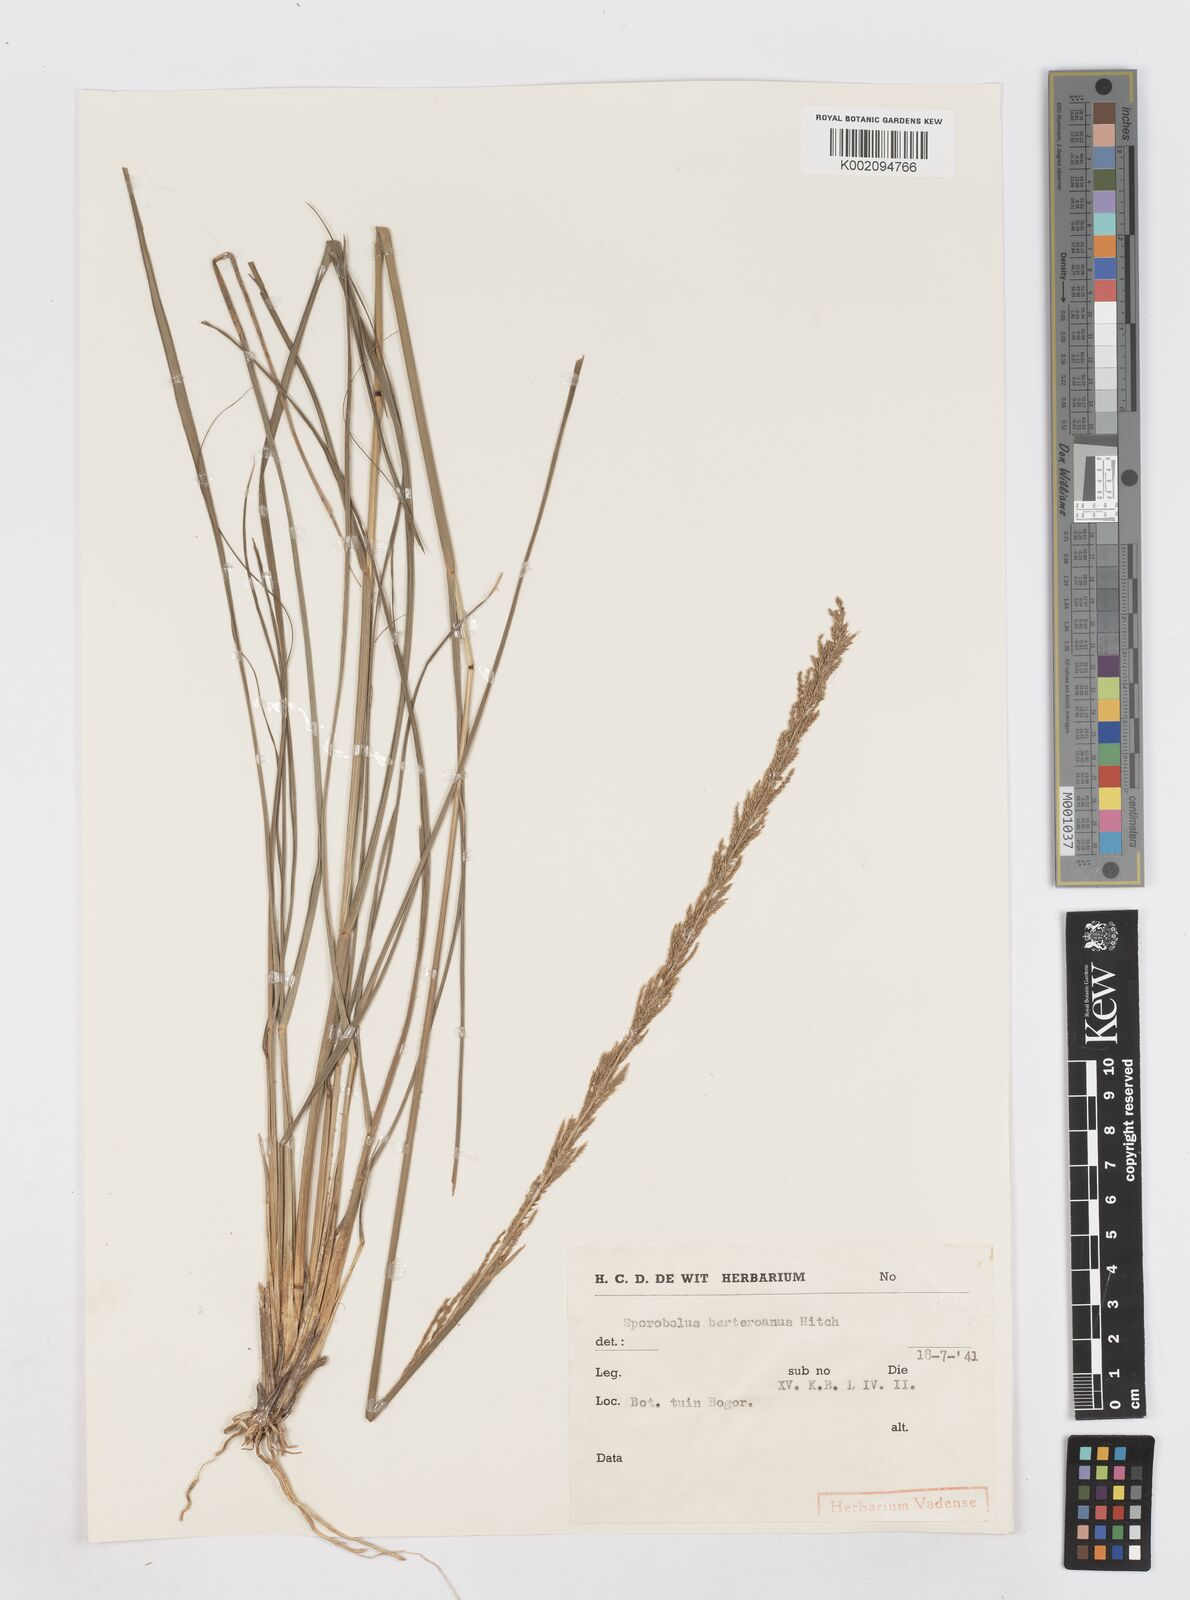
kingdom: Plantae
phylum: Tracheophyta
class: Liliopsida
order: Poales
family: Poaceae
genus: Sporobolus
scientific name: Sporobolus fertilis
